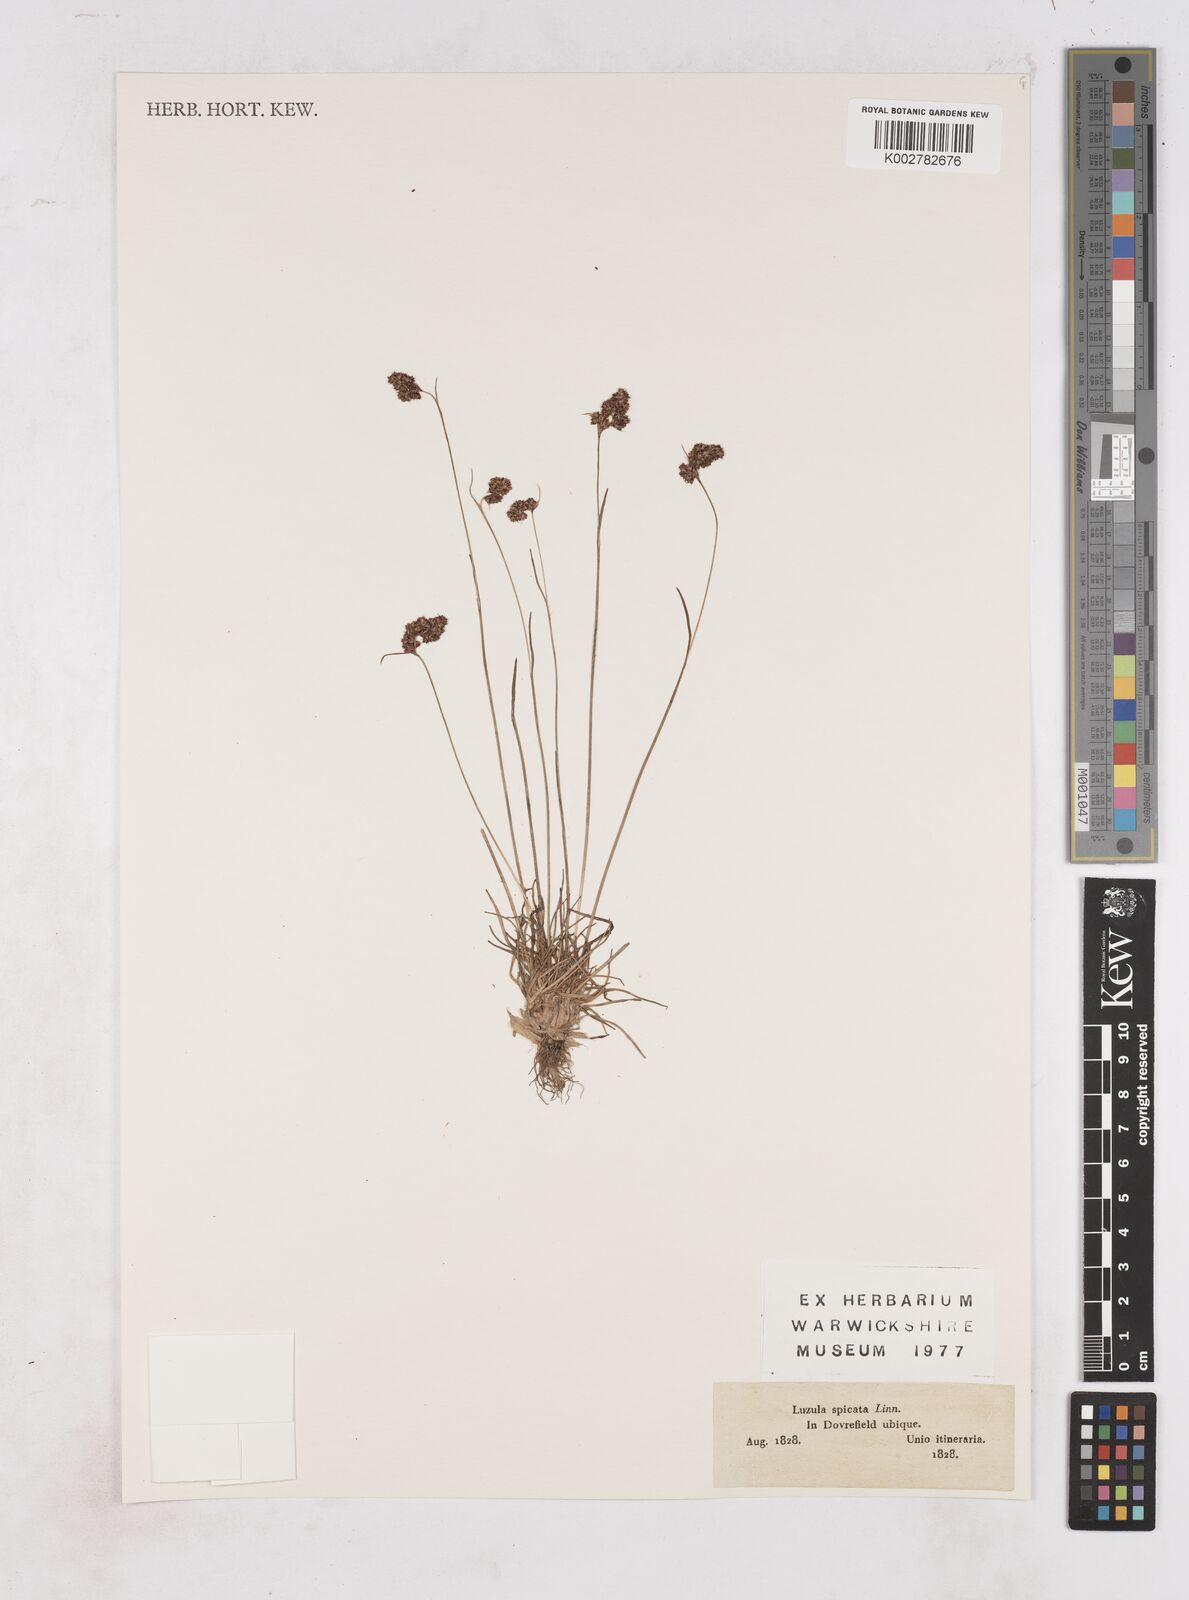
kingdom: Plantae
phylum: Tracheophyta
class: Liliopsida
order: Poales
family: Juncaceae
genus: Luzula
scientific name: Luzula spicata
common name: Spiked wood-rush
